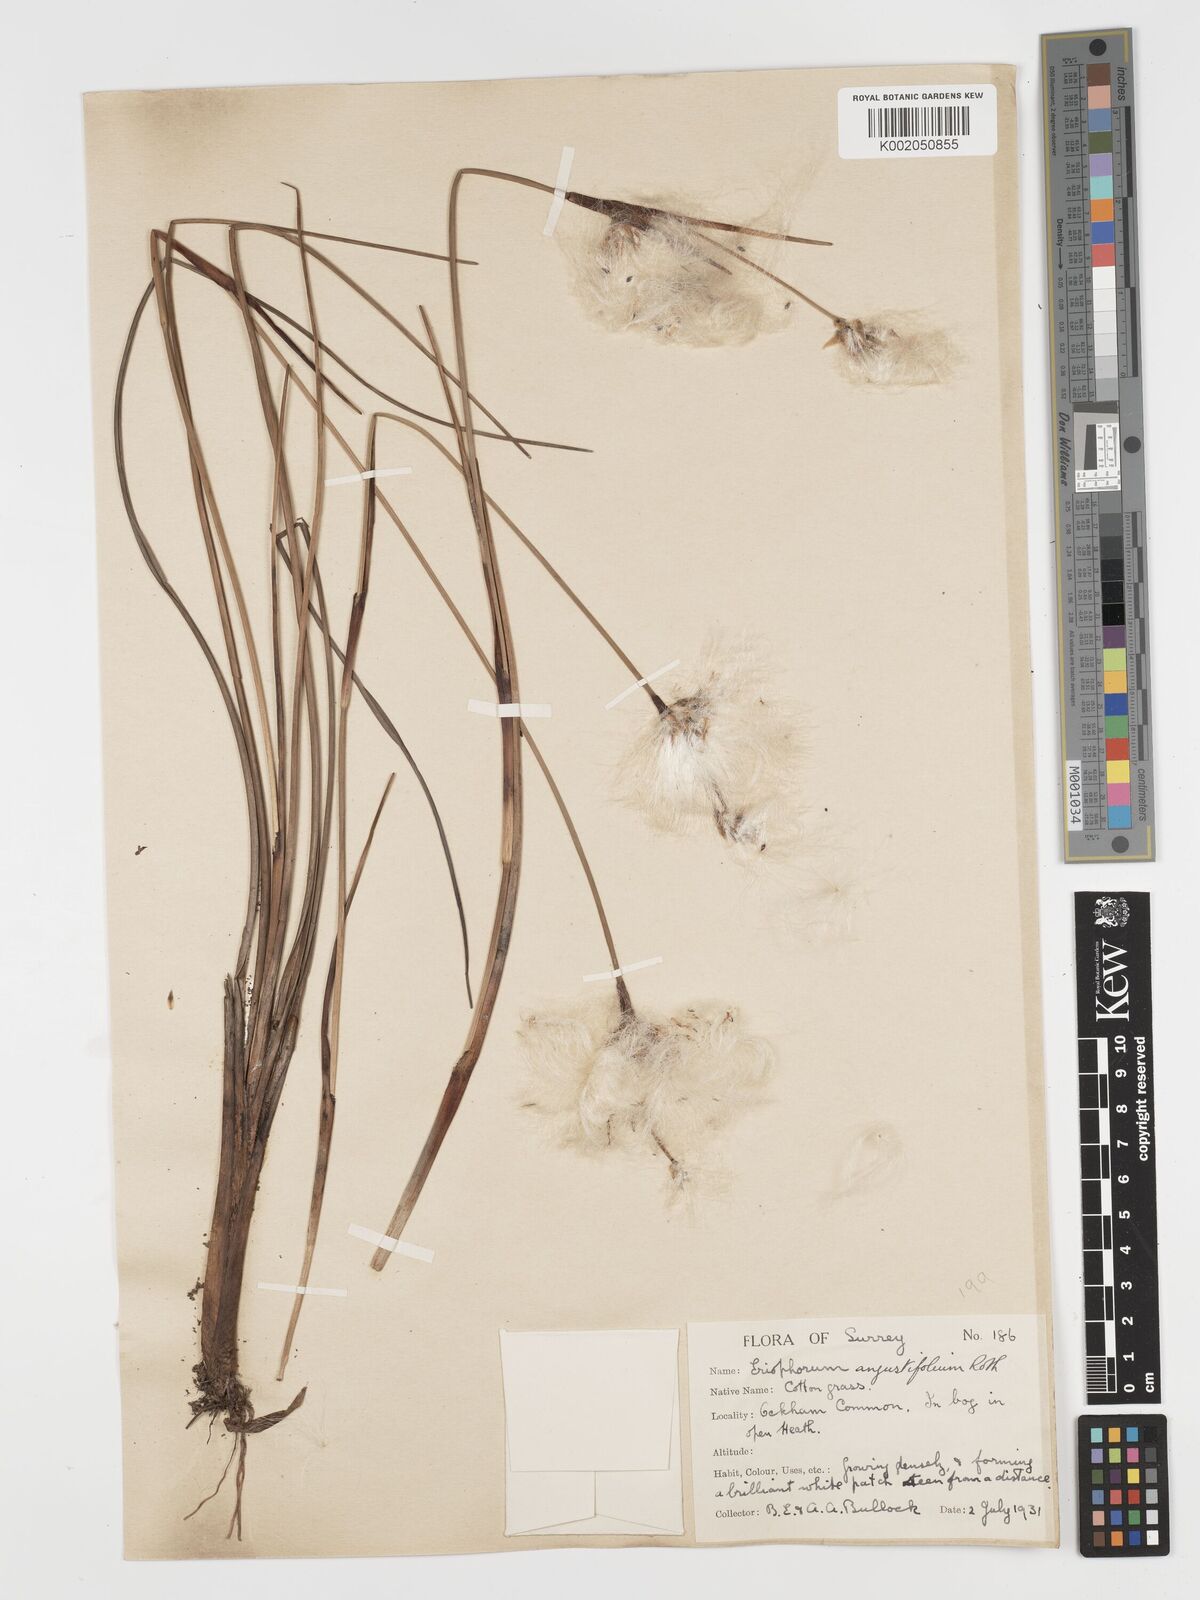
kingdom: Plantae
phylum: Tracheophyta
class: Liliopsida
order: Poales
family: Cyperaceae
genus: Eriophorum
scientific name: Eriophorum angustifolium
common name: Common cottongrass
